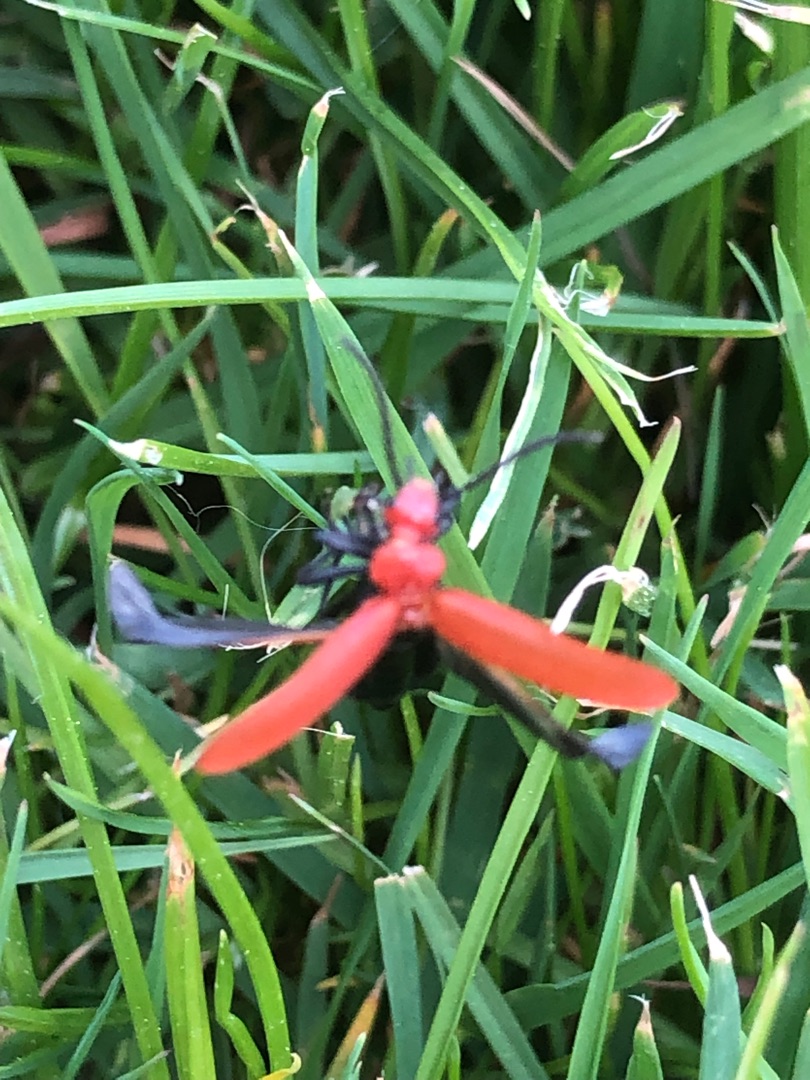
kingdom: Animalia
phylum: Arthropoda
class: Insecta
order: Coleoptera
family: Pyrochroidae
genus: Pyrochroa
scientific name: Pyrochroa serraticornis
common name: Rødhovedet kardinalbille
